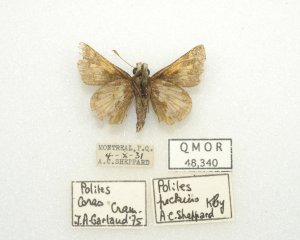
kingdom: Animalia
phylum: Arthropoda
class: Insecta
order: Lepidoptera
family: Hesperiidae
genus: Polites
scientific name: Polites coras
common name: Peck's Skipper
